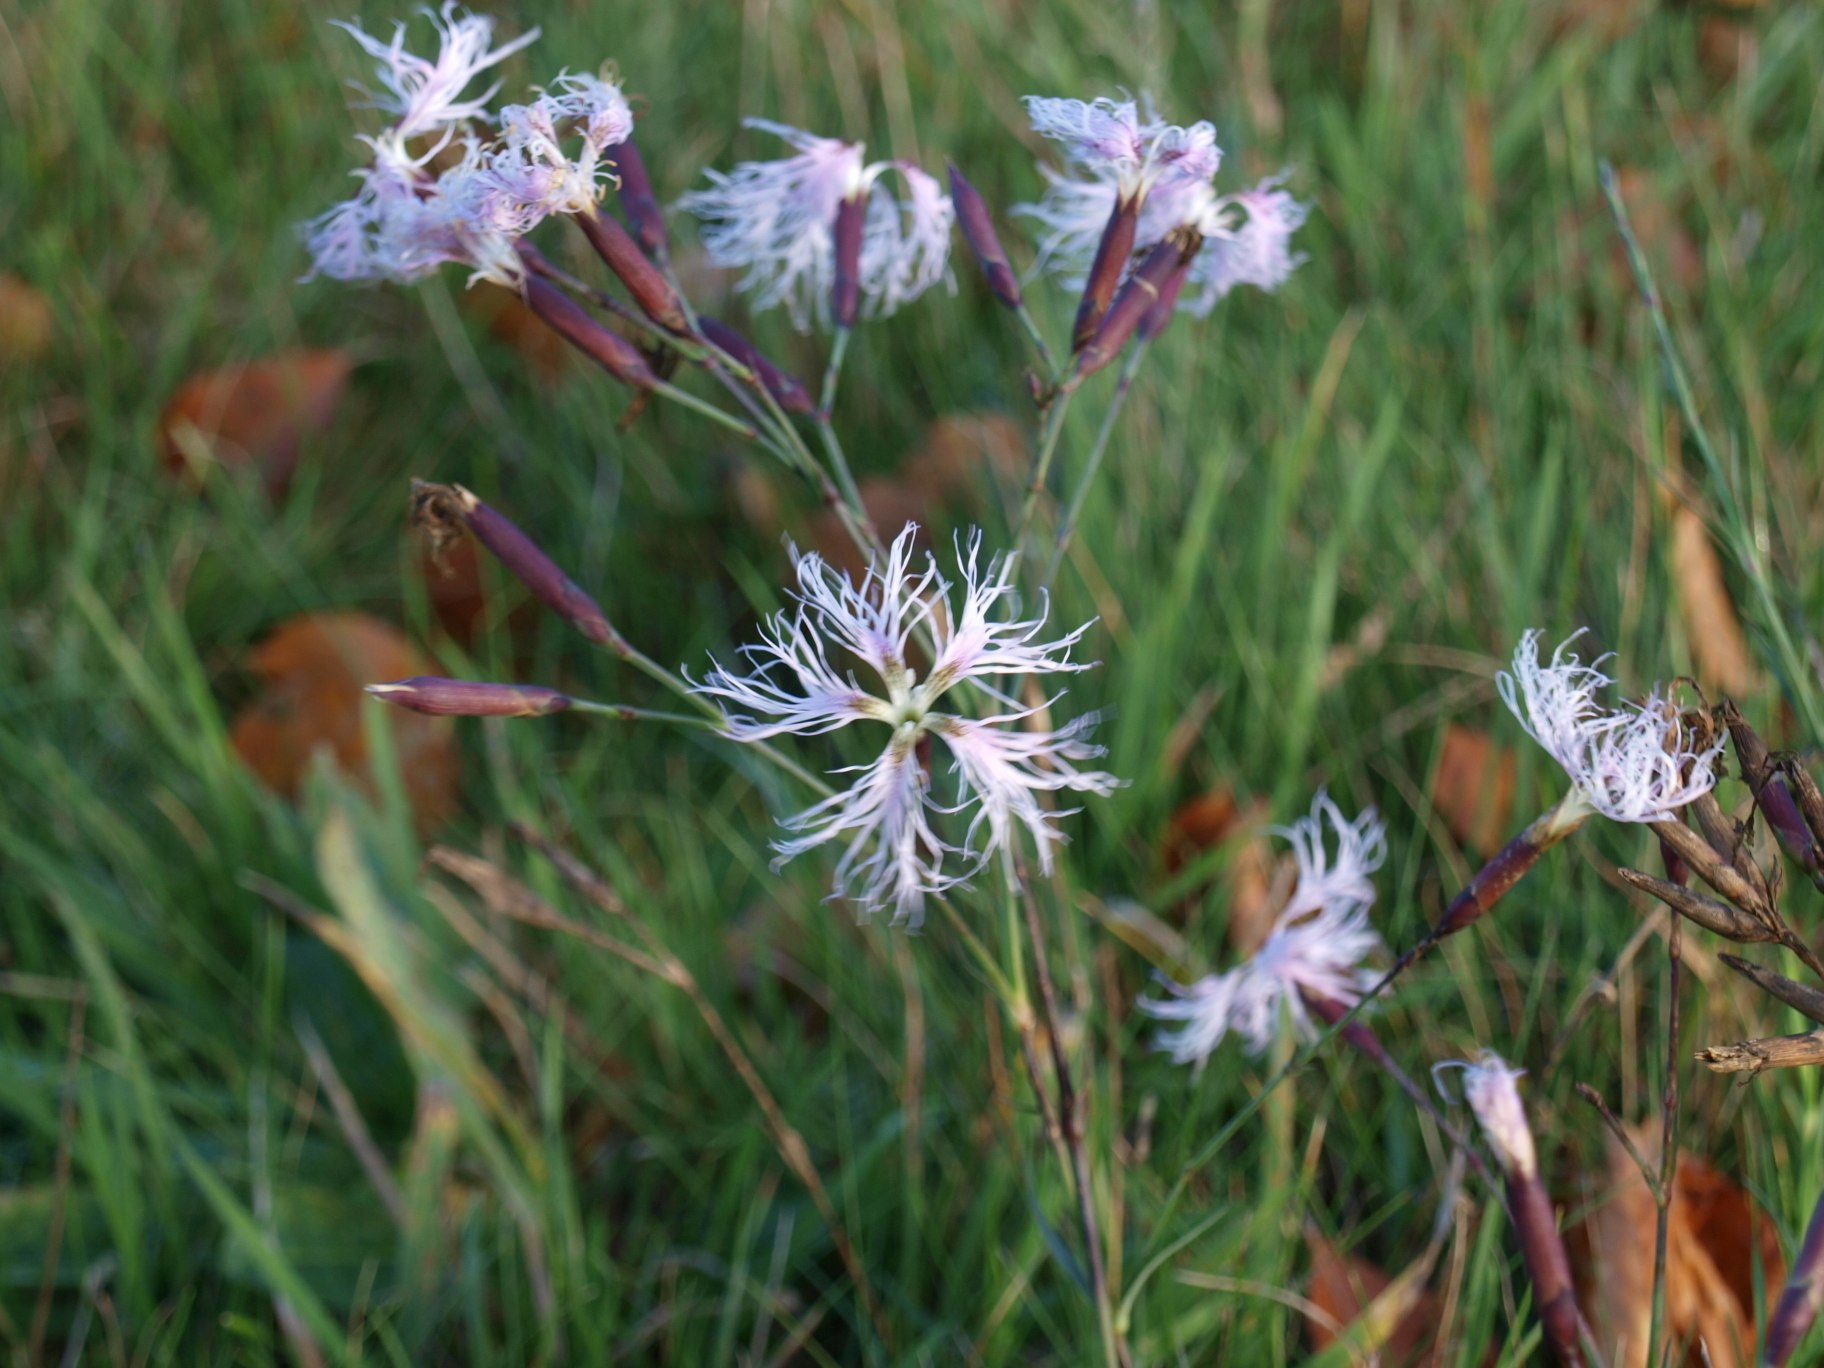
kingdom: Plantae
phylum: Tracheophyta
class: Magnoliopsida
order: Caryophyllales
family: Caryophyllaceae
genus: Dianthus
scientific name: Dianthus superbus
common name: Strand-nellike
